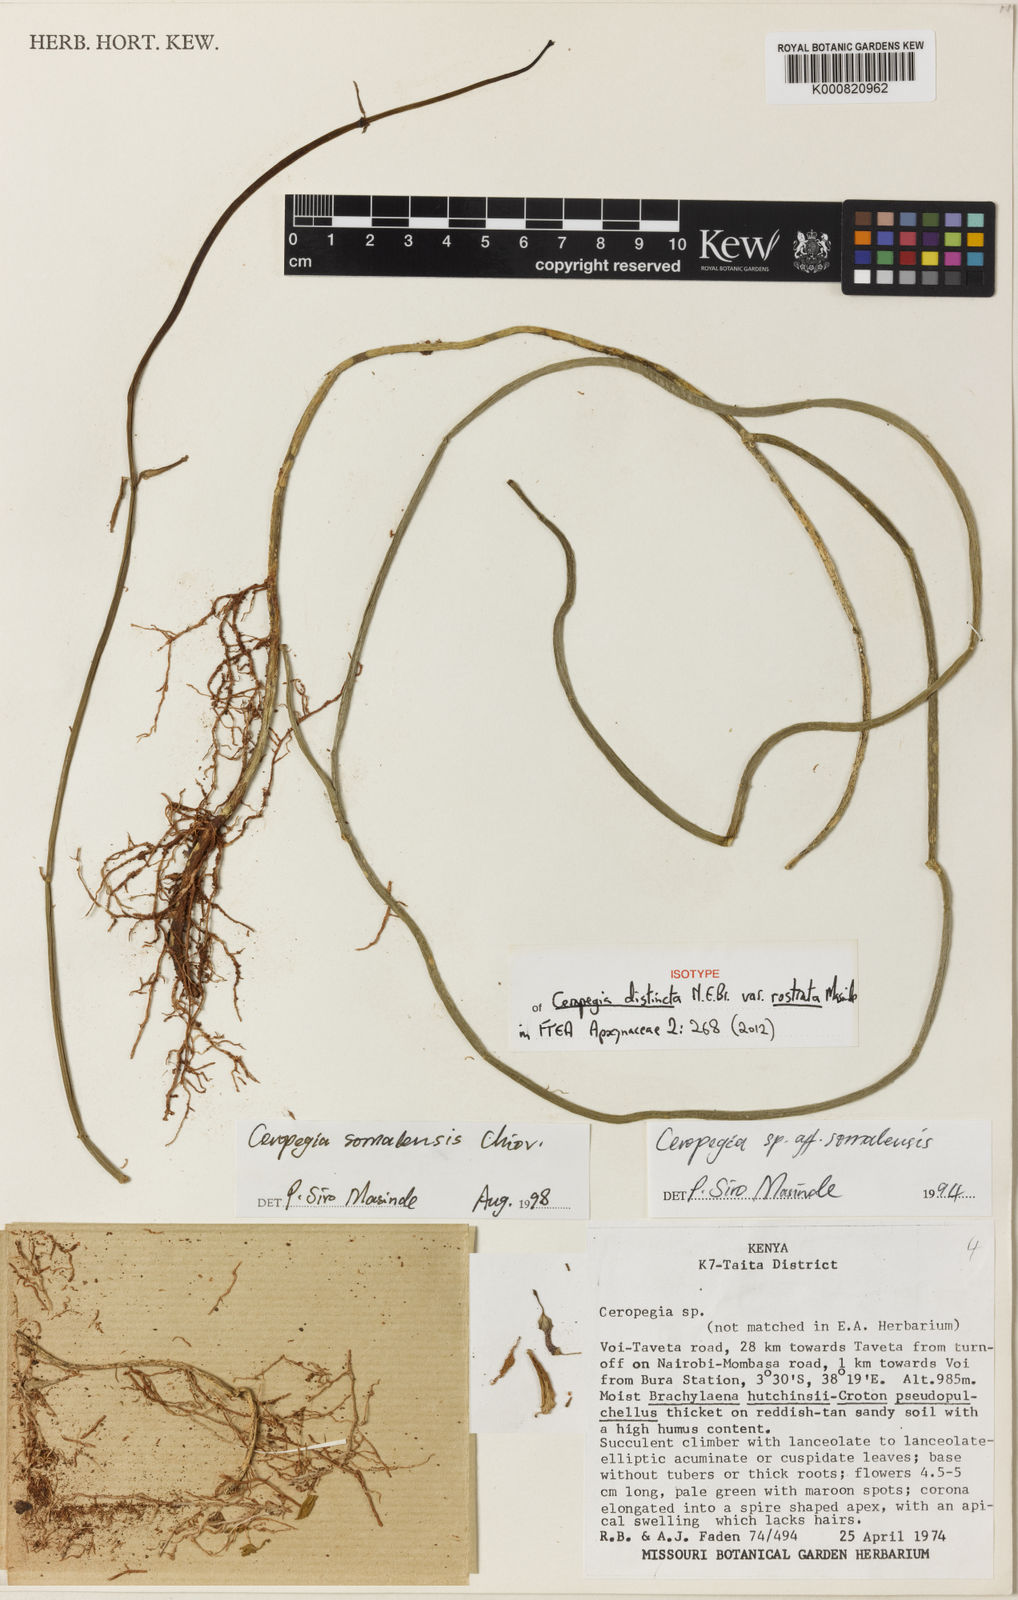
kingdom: Plantae
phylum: Tracheophyta
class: Magnoliopsida
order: Gentianales
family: Apocynaceae
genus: Ceropegia
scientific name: Ceropegia distincta
